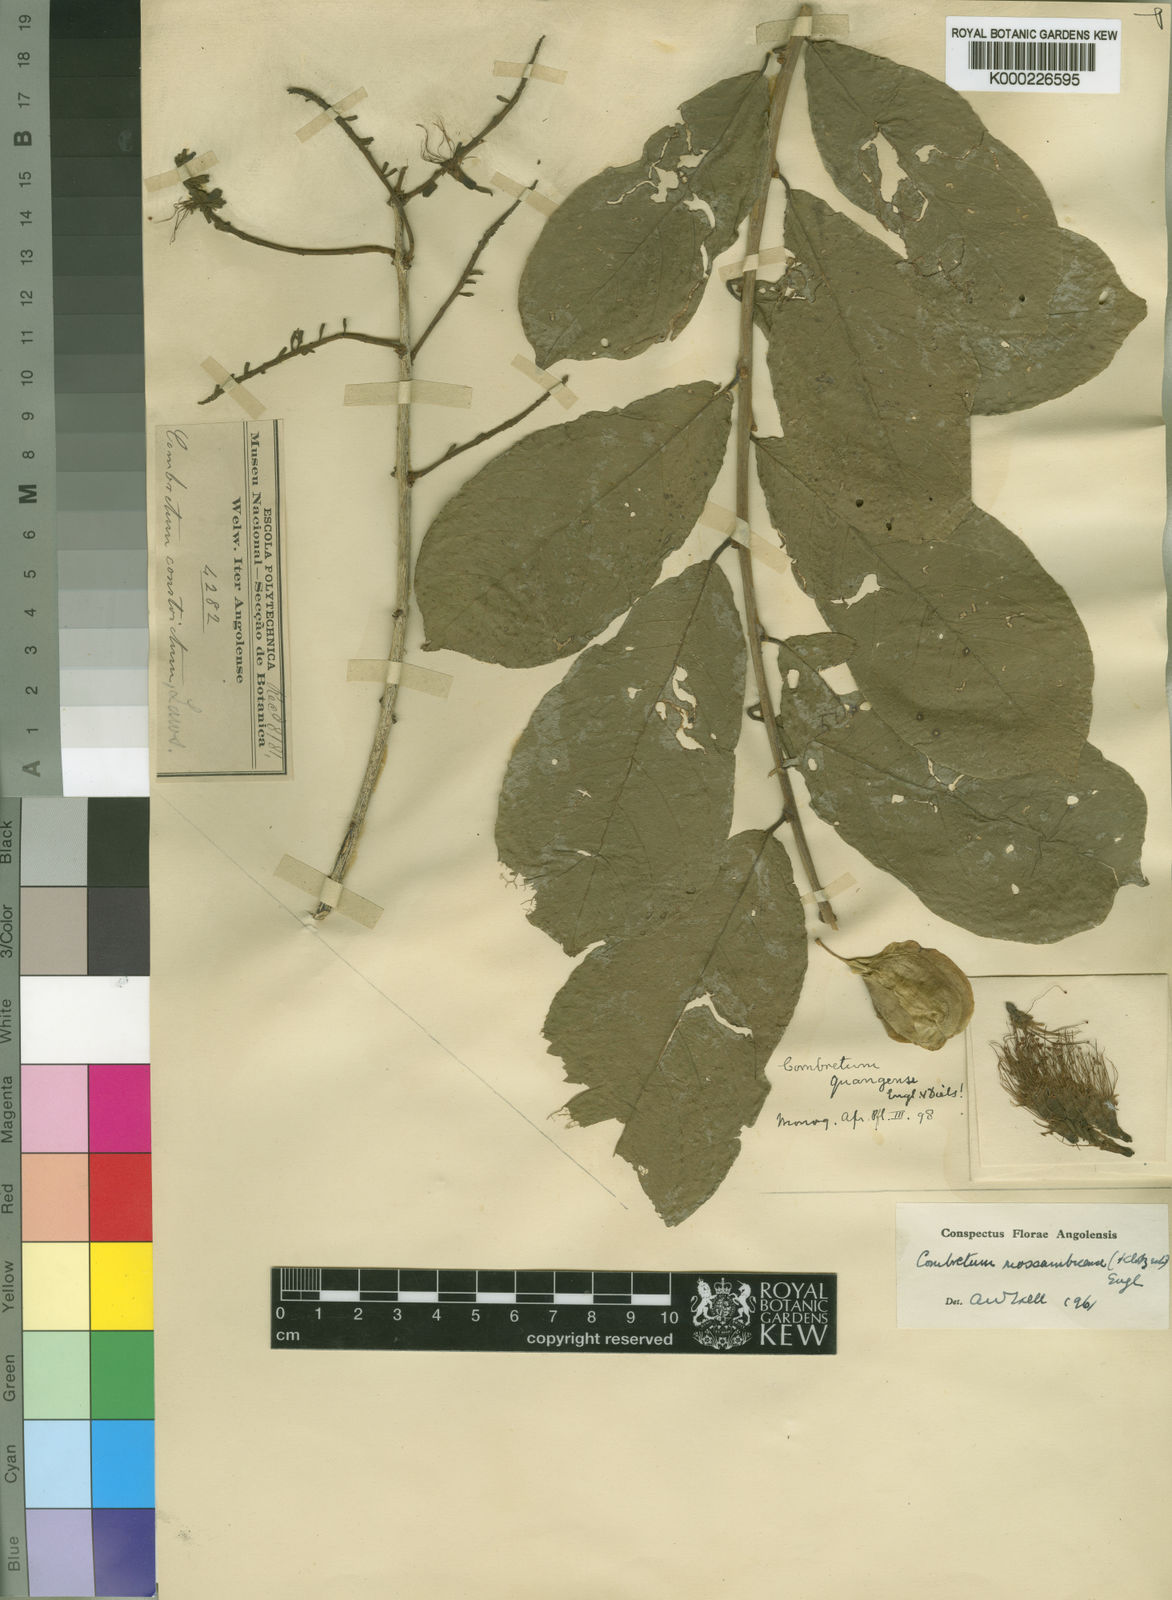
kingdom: Plantae
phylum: Tracheophyta
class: Magnoliopsida
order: Myrtales
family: Combretaceae
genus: Combretum
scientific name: Combretum mossambicense
